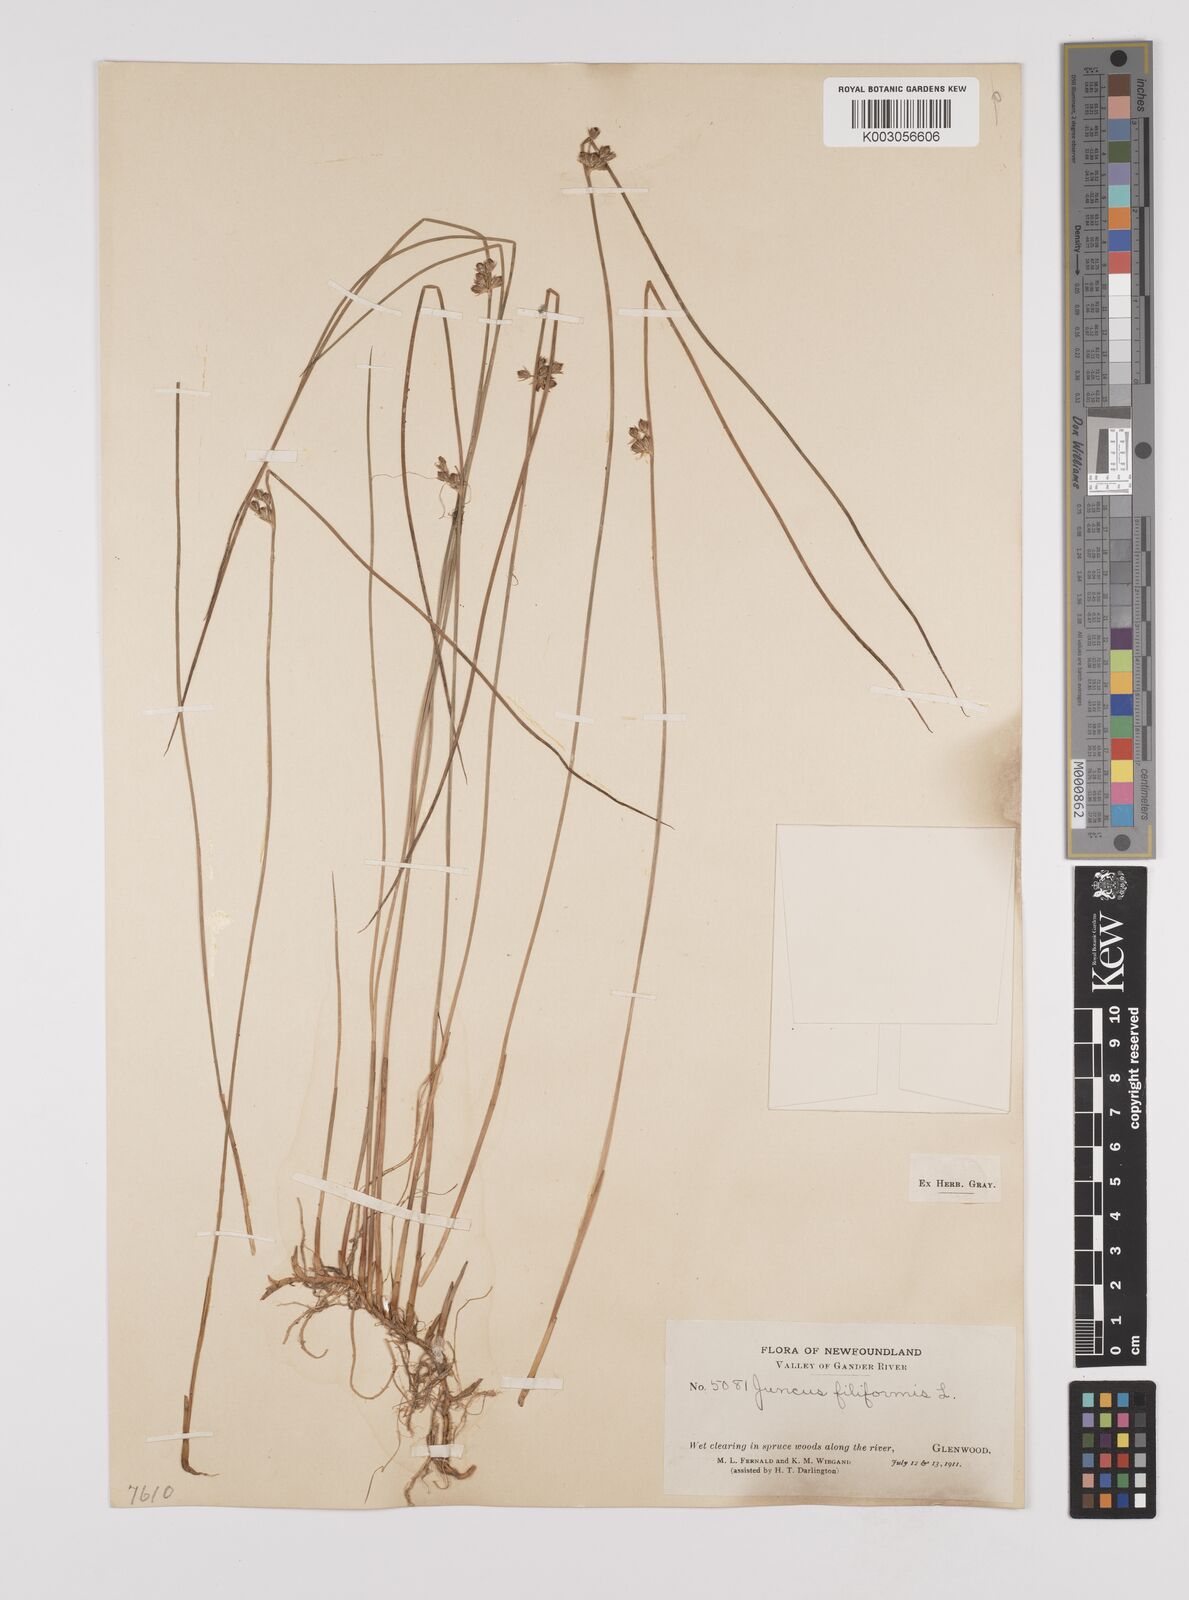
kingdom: Plantae
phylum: Tracheophyta
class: Liliopsida
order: Poales
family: Juncaceae
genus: Juncus
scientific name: Juncus filiformis
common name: Thread rush
